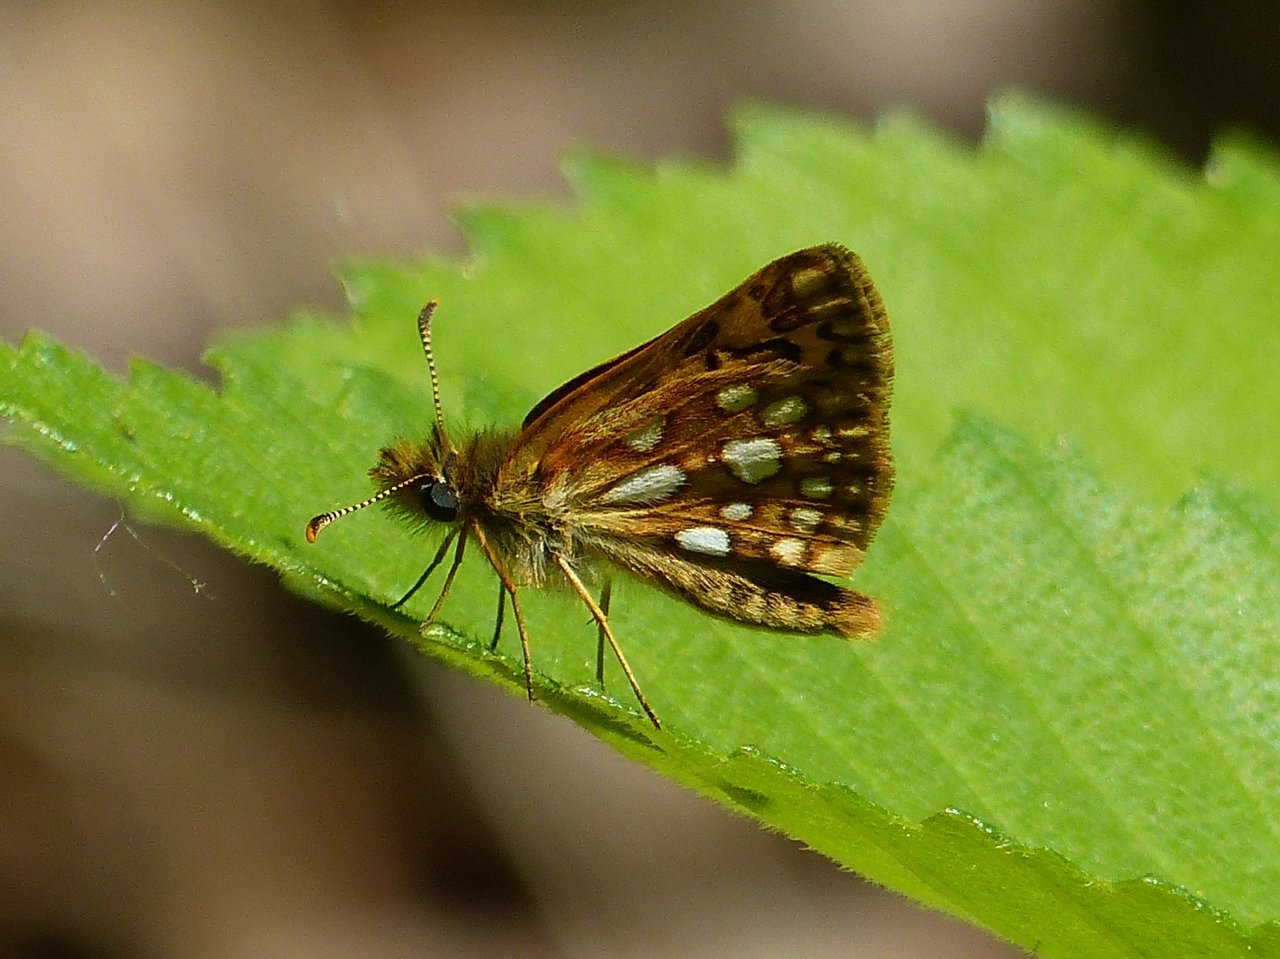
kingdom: Animalia
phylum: Arthropoda
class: Insecta
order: Lepidoptera
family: Hesperiidae
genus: Carterocephalus
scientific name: Carterocephalus palaemon
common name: Chequered Skipper
